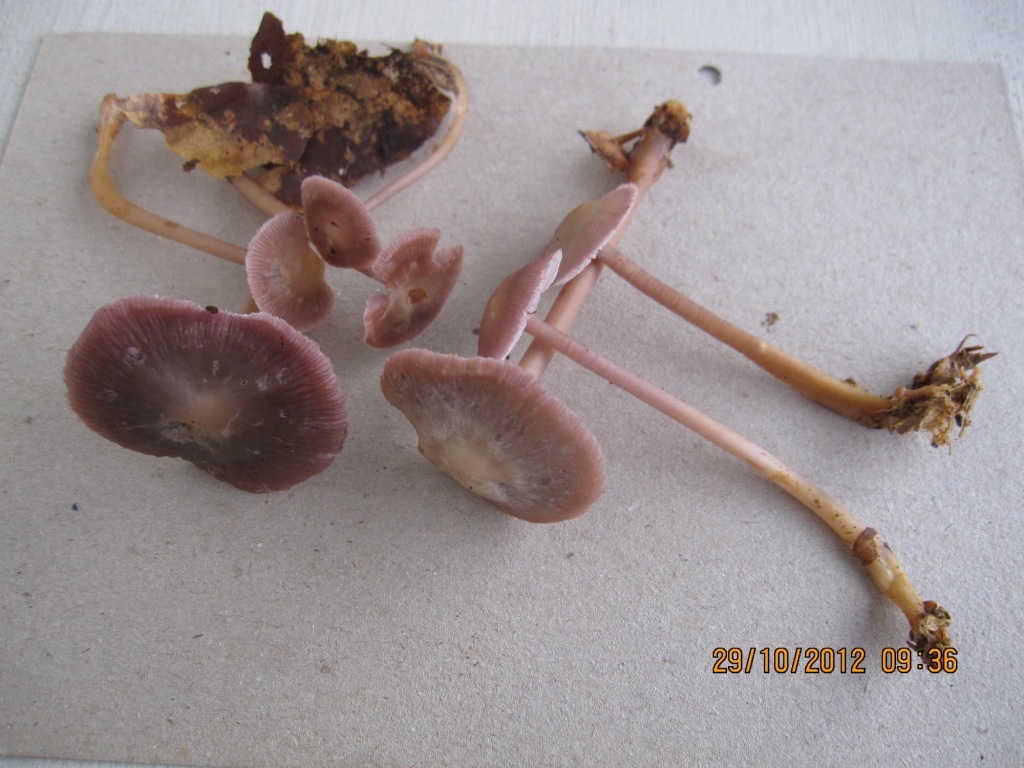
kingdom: Fungi
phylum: Basidiomycota
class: Agaricomycetes
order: Agaricales
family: Mycenaceae
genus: Prunulus
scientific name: Prunulus diosmus
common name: tobaks-huesvamp
